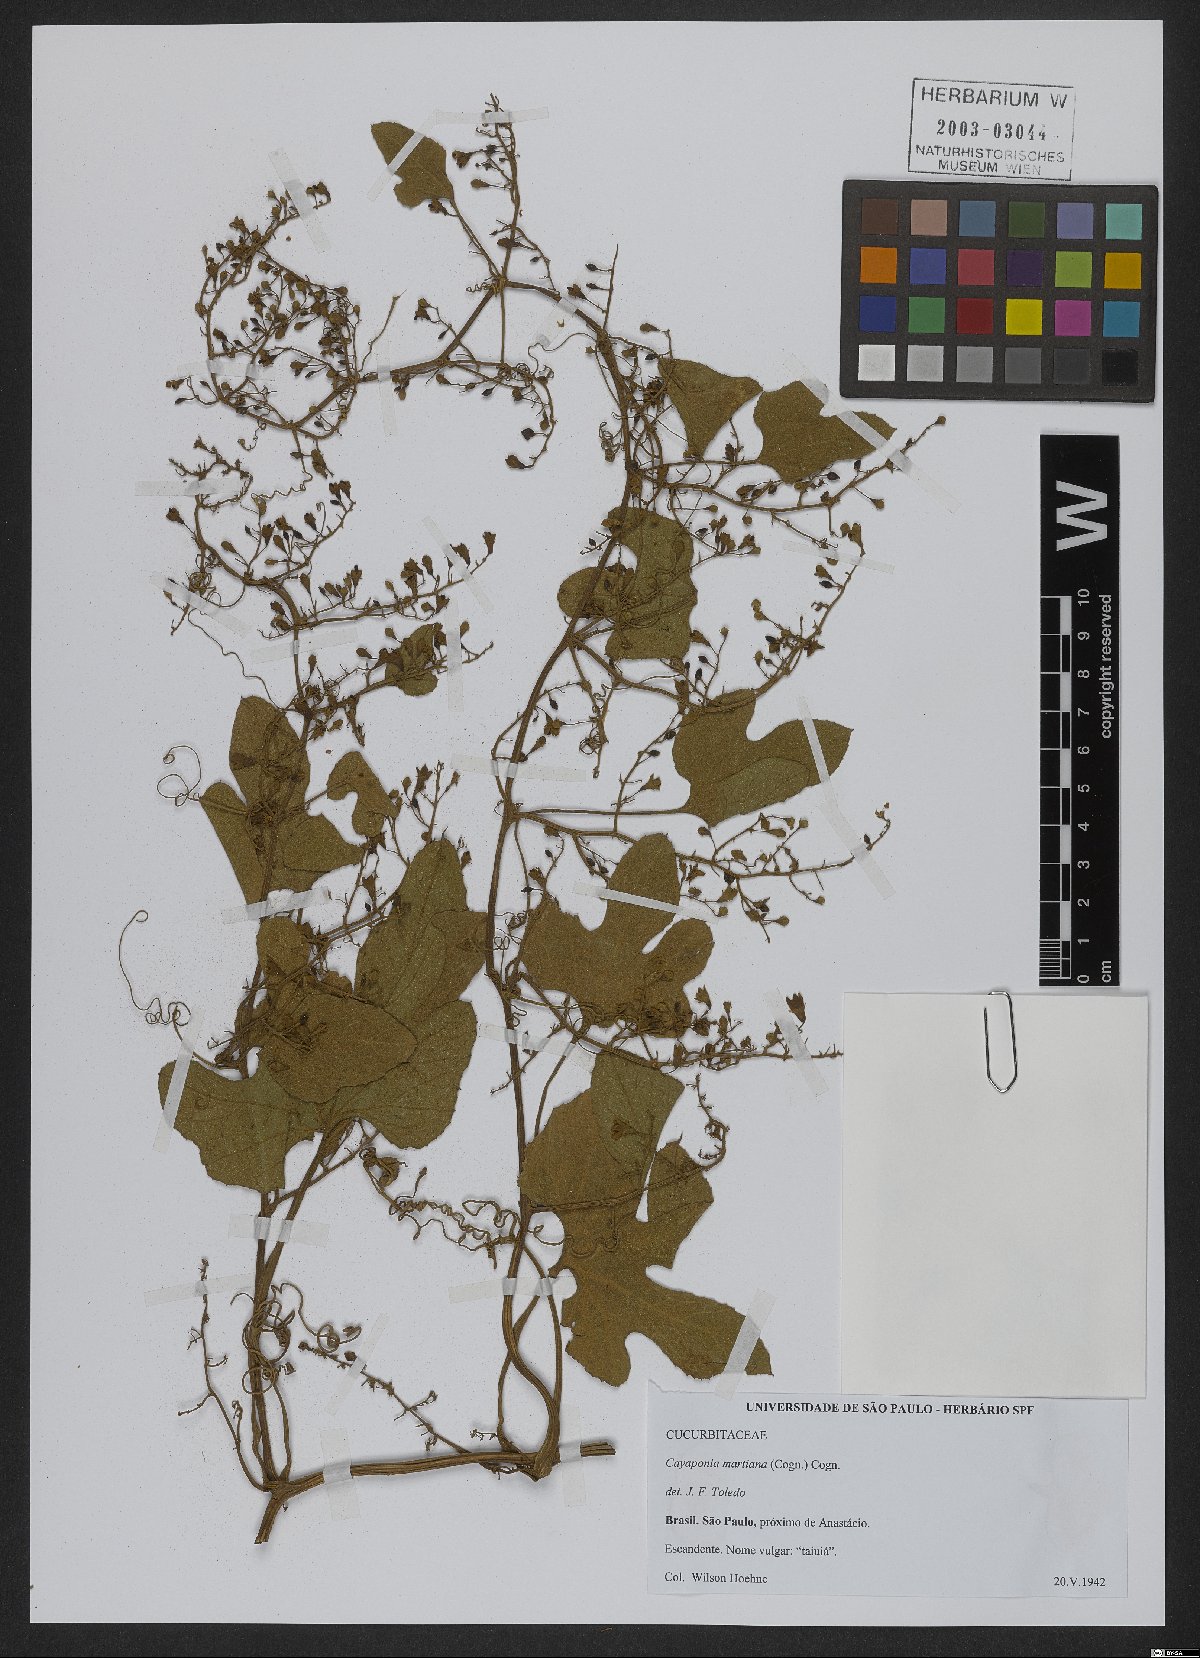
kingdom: Plantae
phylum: Tracheophyta
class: Magnoliopsida
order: Cucurbitales
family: Cucurbitaceae
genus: Cayaponia
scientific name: Cayaponia martiana
